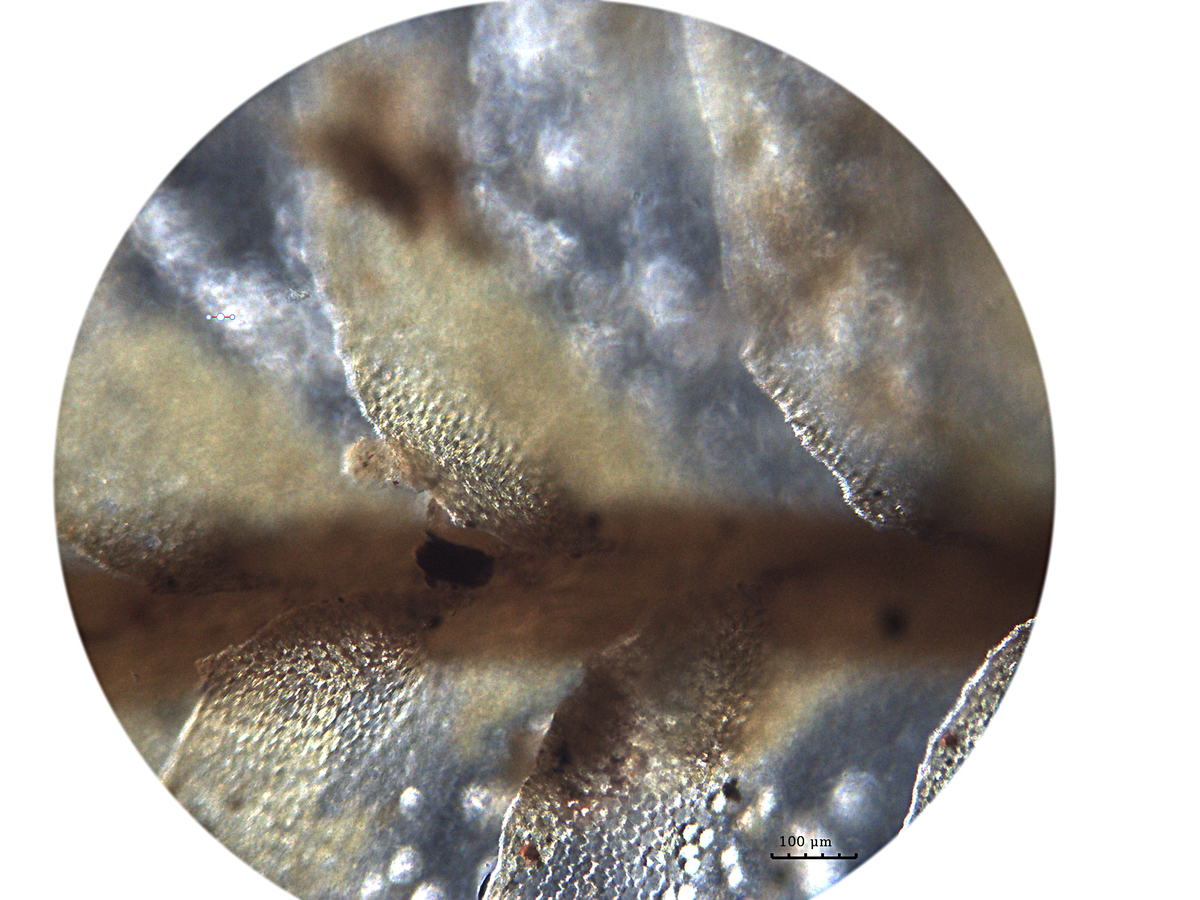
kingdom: Plantae
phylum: Marchantiophyta
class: Jungermanniopsida
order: Jungermanniales
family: Plagiochilaceae
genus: Plagiochila
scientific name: Plagiochila repanda
